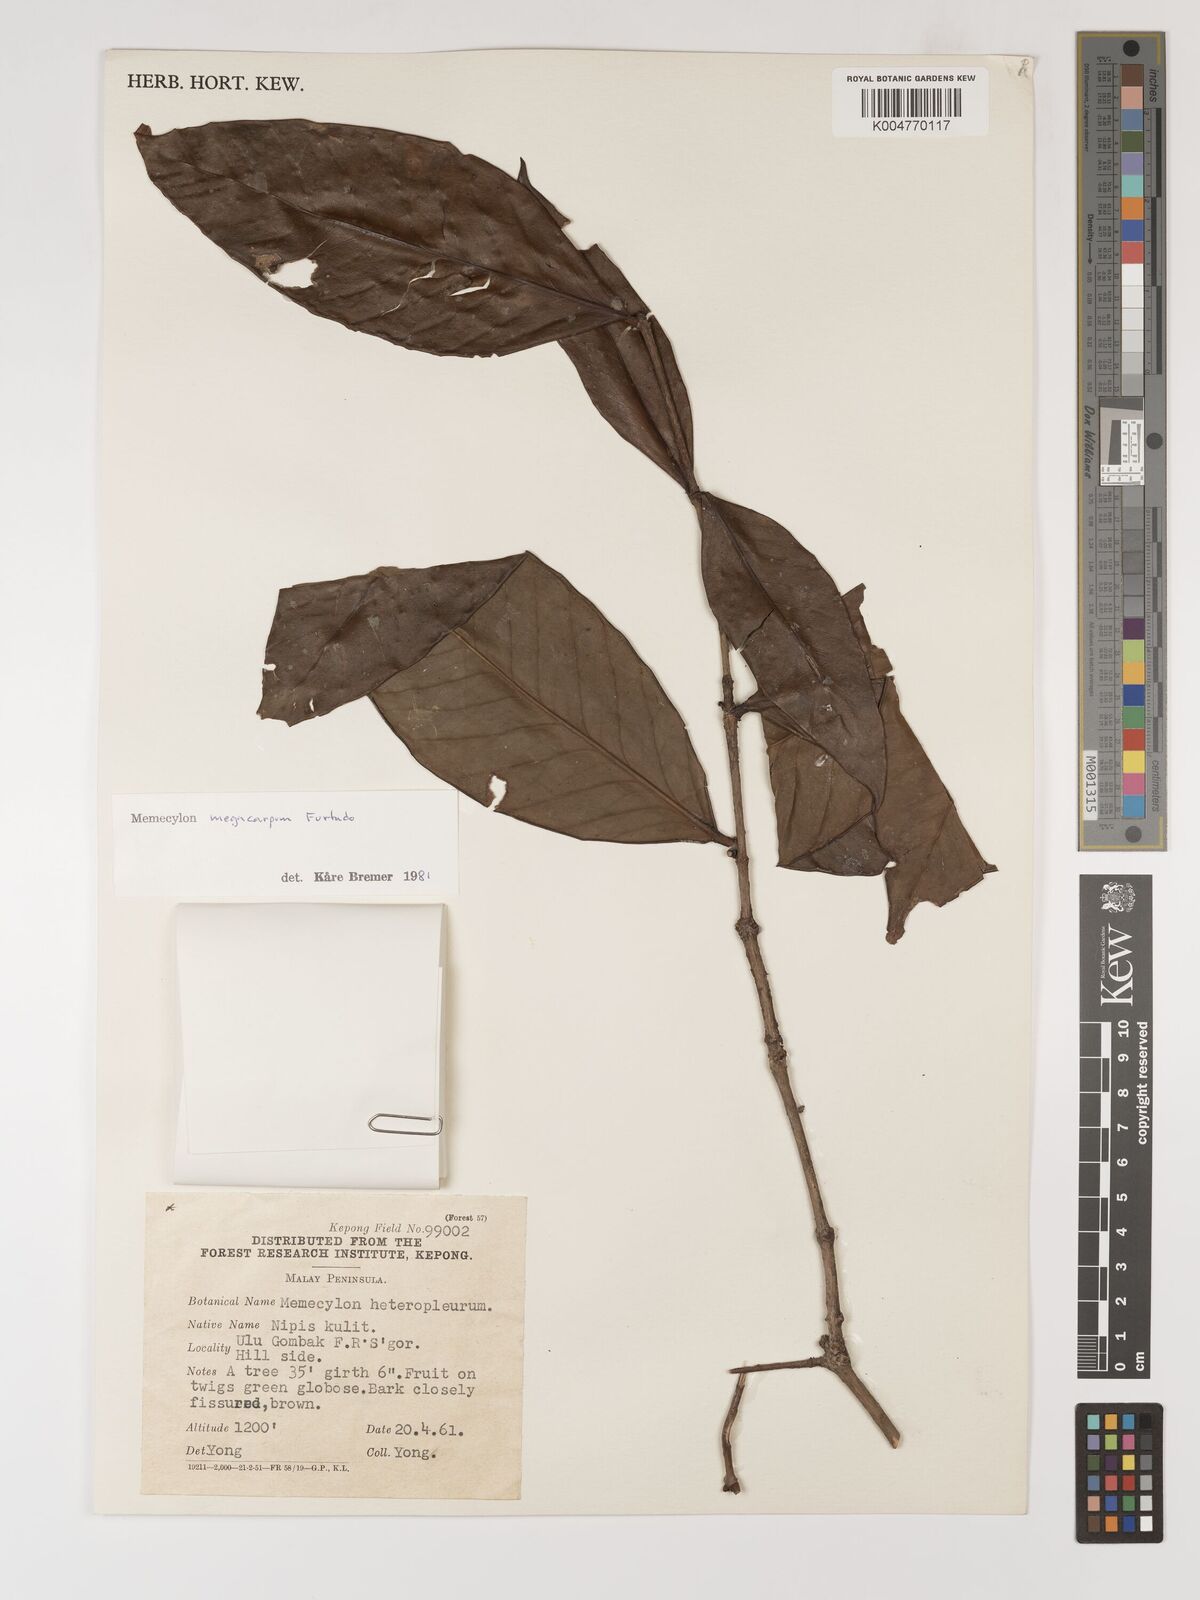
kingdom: Plantae
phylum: Tracheophyta
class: Magnoliopsida
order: Myrtales
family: Melastomataceae
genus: Memecylon
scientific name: Memecylon megacarpum
